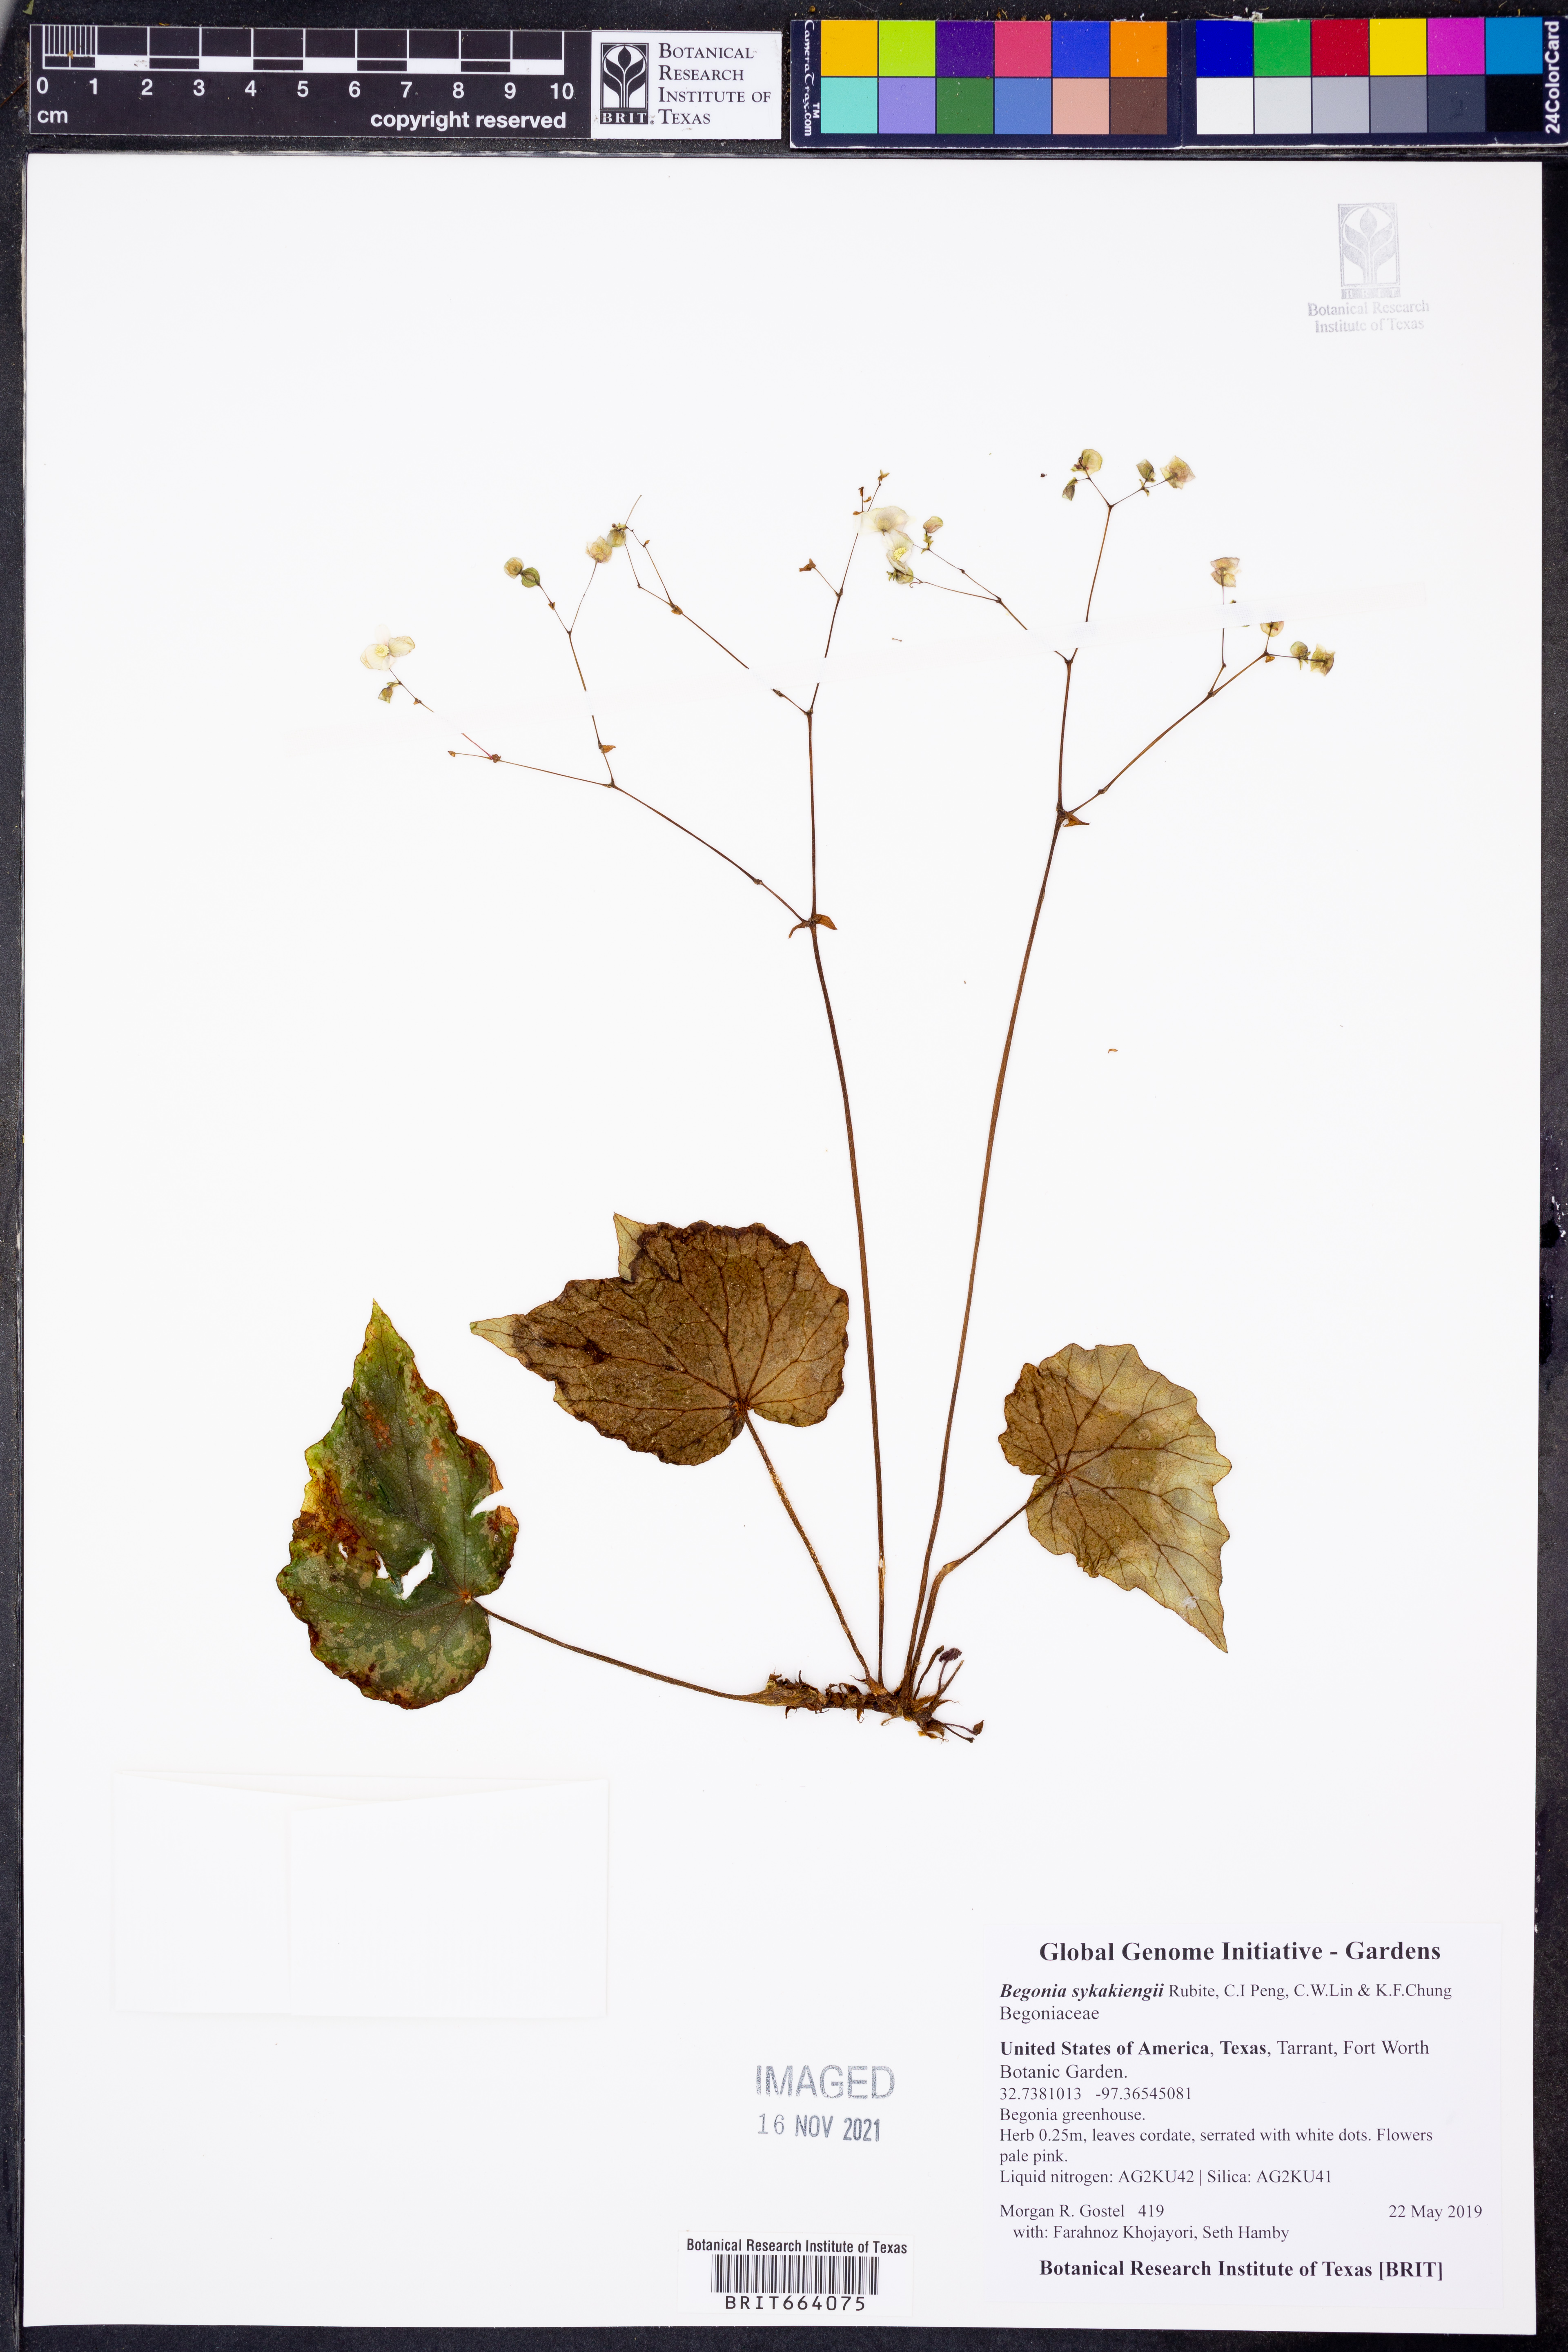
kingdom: Plantae
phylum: Tracheophyta
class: Magnoliopsida
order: Cucurbitales
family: Begoniaceae
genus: Begonia
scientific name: Begonia sykakiengii
